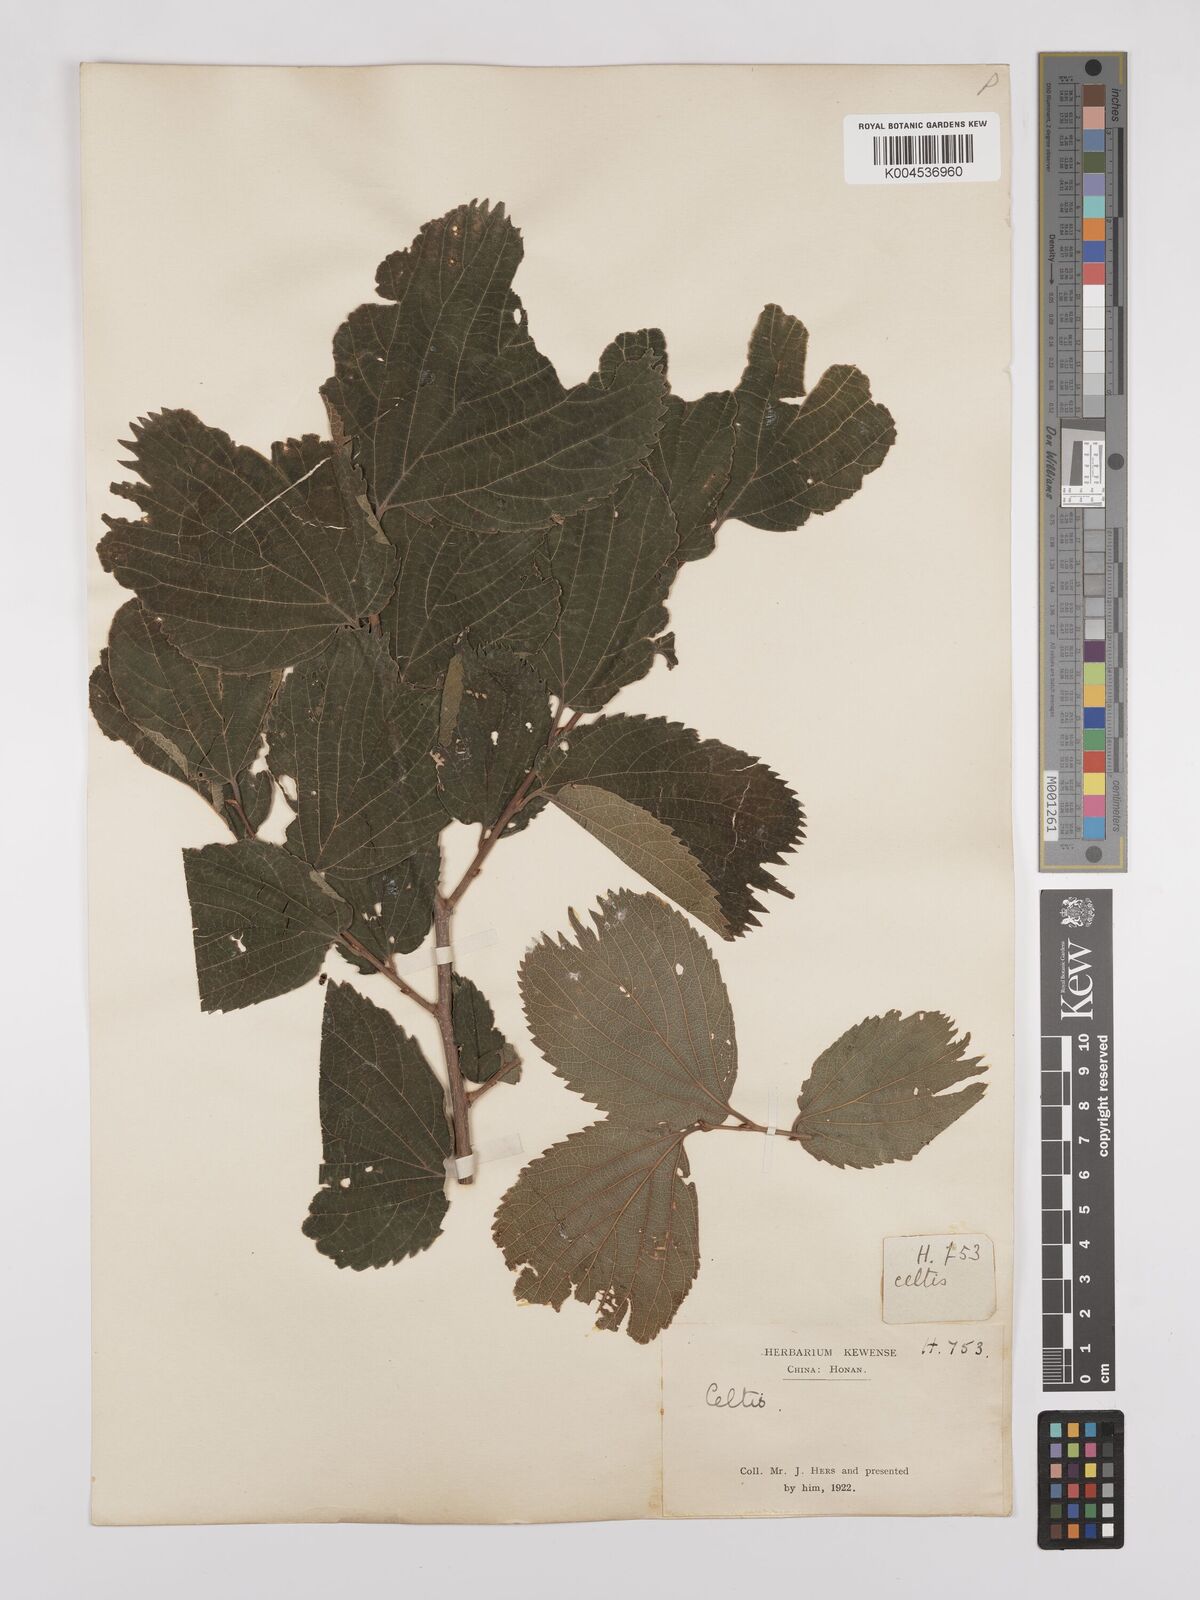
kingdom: Plantae
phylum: Tracheophyta
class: Magnoliopsida
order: Rosales
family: Cannabaceae
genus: Celtis
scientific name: Celtis koraiensis
